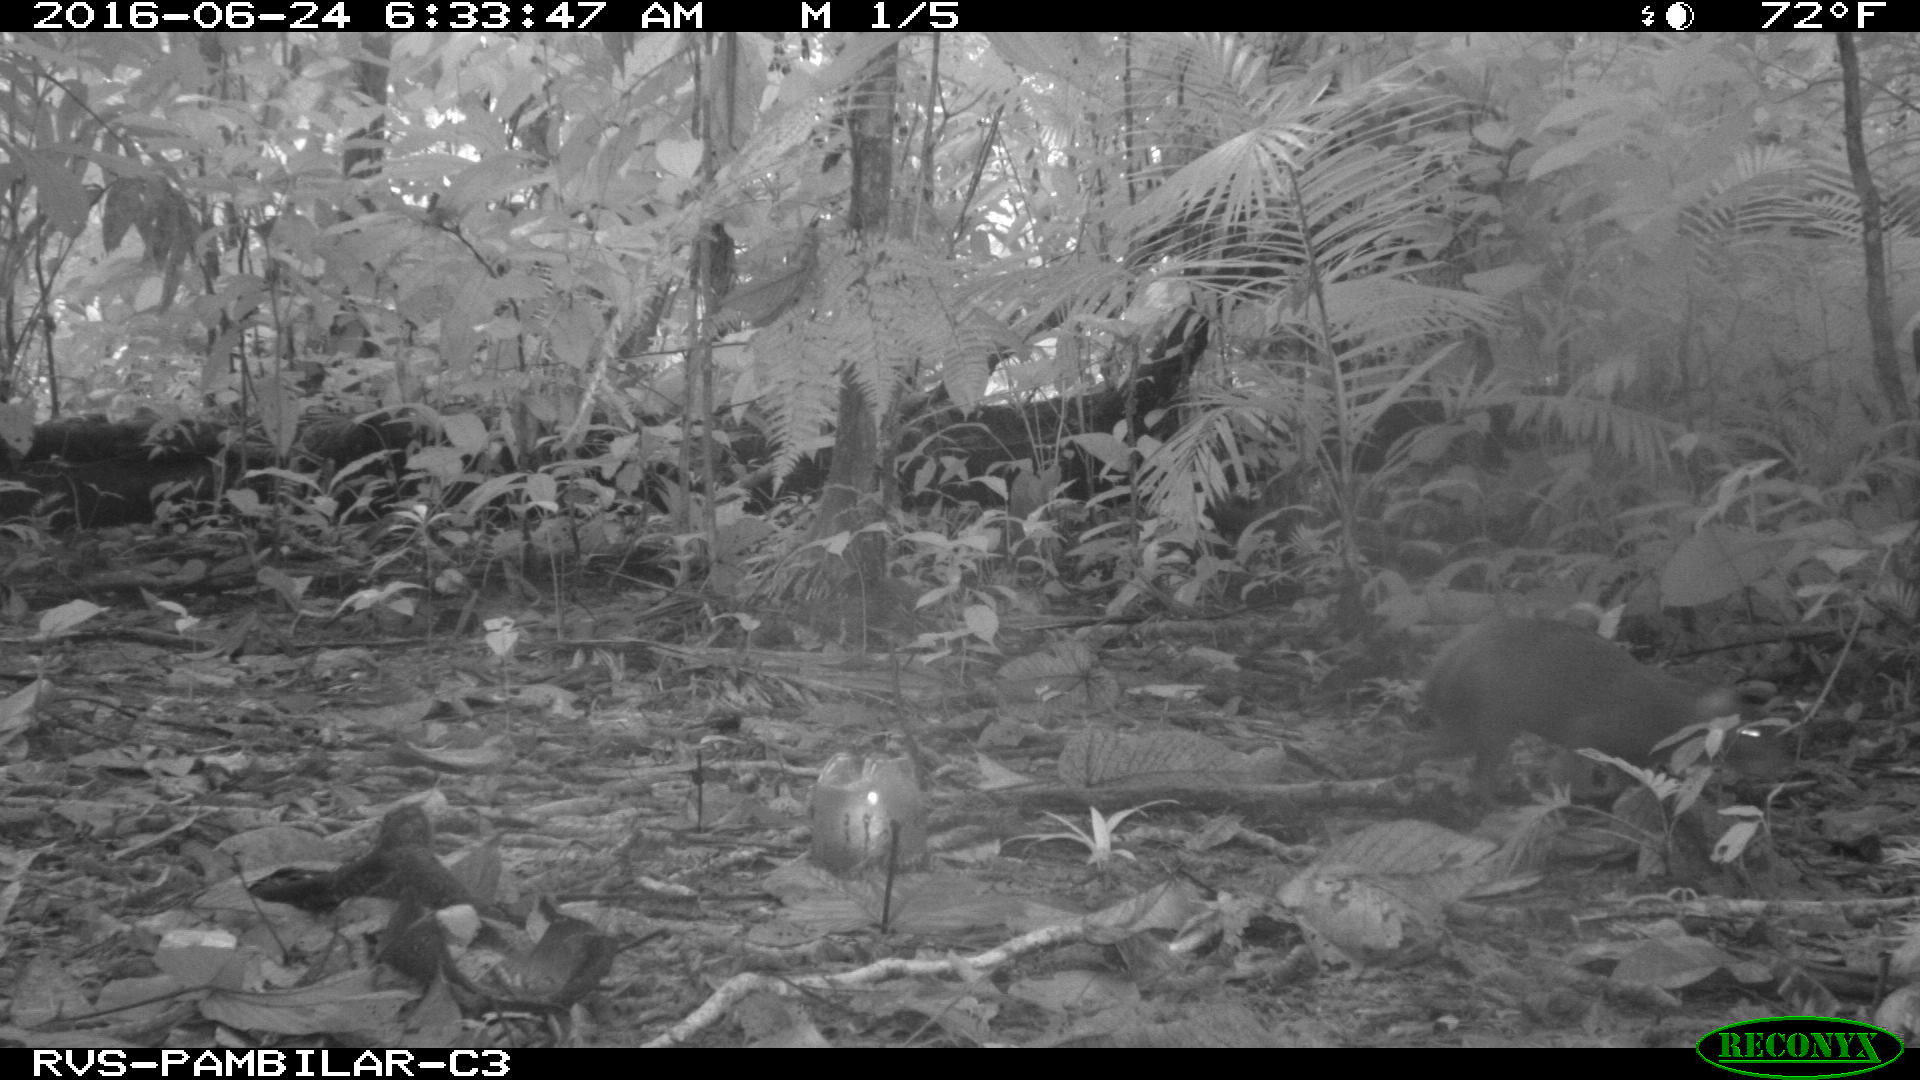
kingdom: Animalia
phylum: Chordata
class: Mammalia
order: Rodentia
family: Dasyproctidae
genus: Dasyprocta
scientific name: Dasyprocta punctata
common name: Central american agouti
